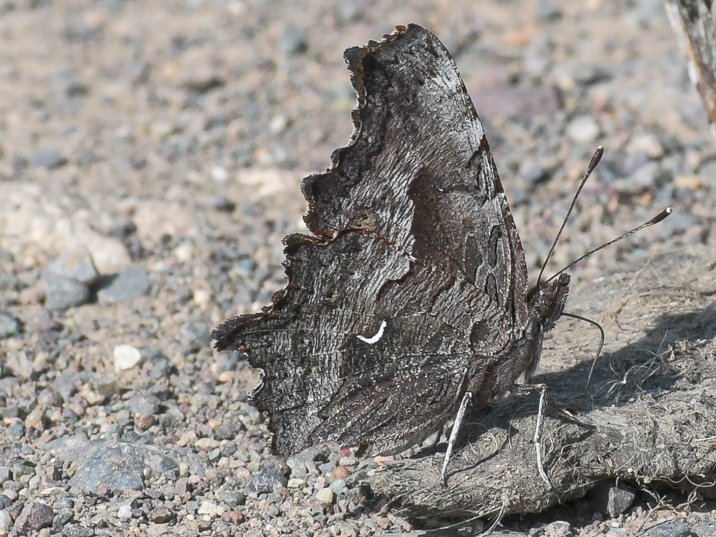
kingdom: Animalia
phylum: Arthropoda
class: Insecta
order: Lepidoptera
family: Nymphalidae
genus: Polygonia
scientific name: Polygonia gracilis
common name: Hoary Comma
